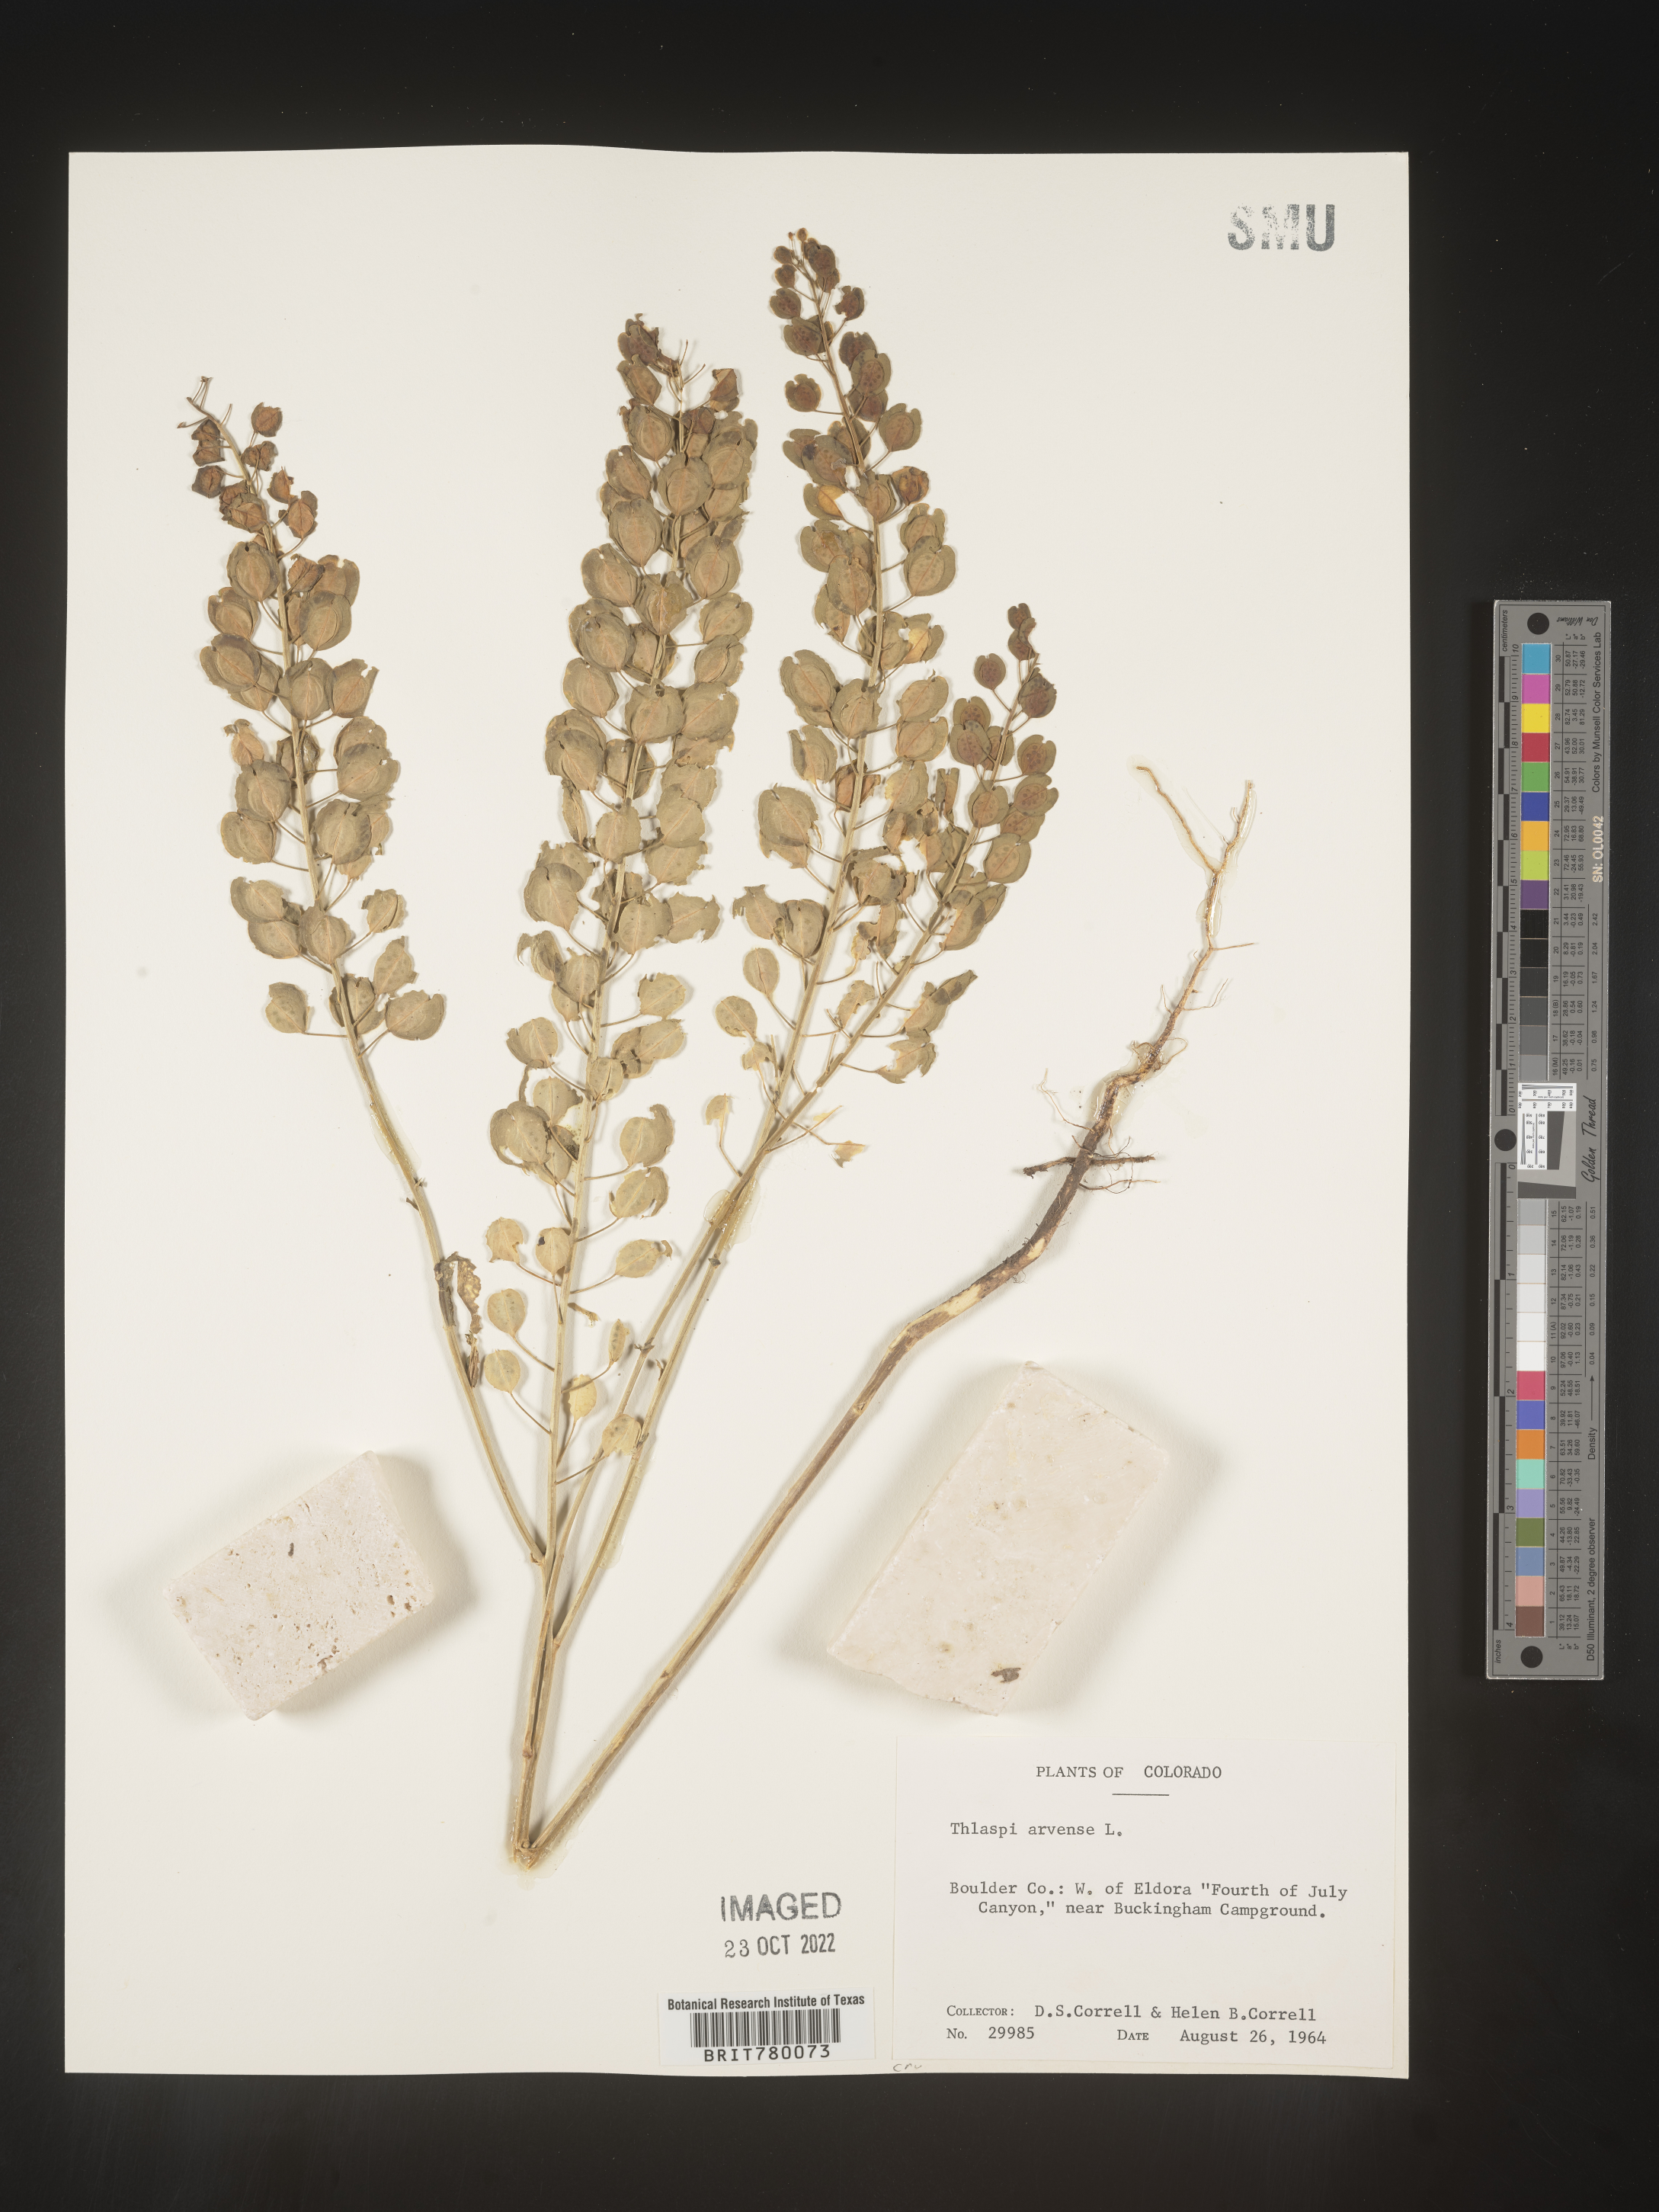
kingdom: Plantae
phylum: Tracheophyta
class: Magnoliopsida
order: Brassicales
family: Brassicaceae
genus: Thlaspi
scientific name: Thlaspi arvense
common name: Field pennycress
